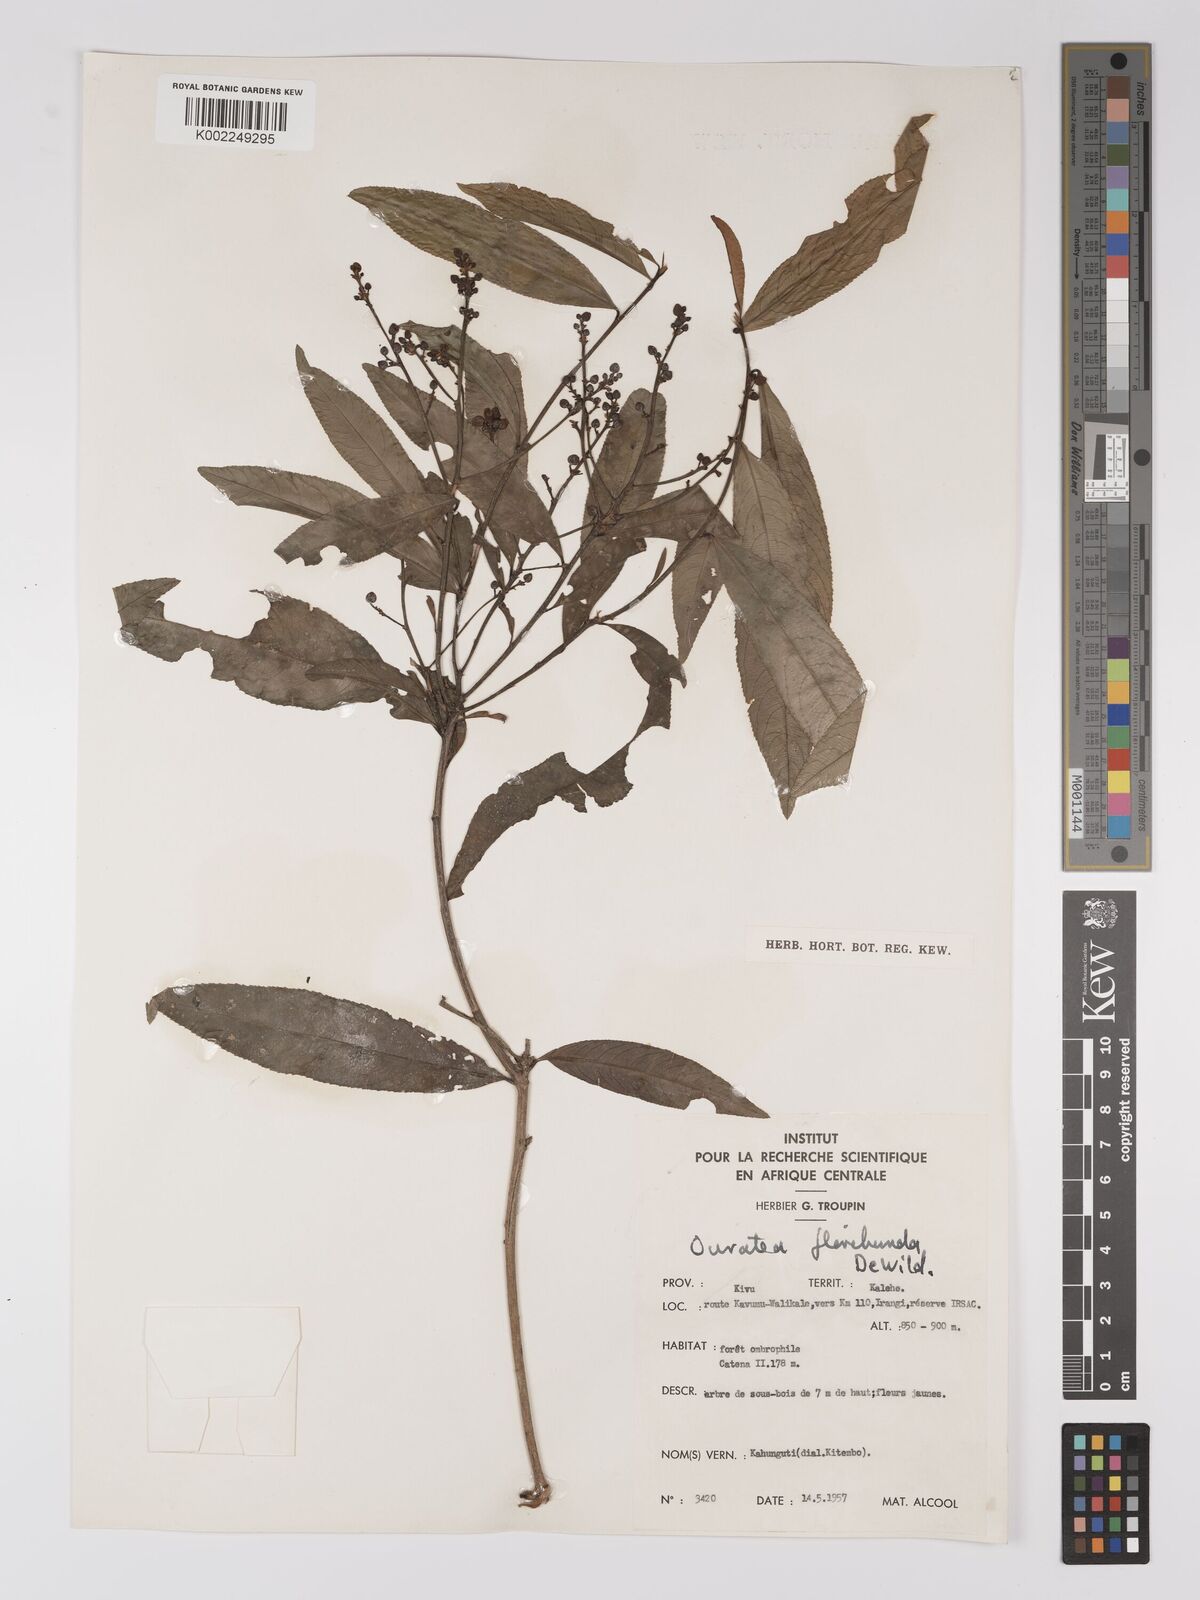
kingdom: Plantae
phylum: Tracheophyta
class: Magnoliopsida
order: Malpighiales
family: Ochnaceae
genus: Campylospermum
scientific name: Campylospermum likimiense
